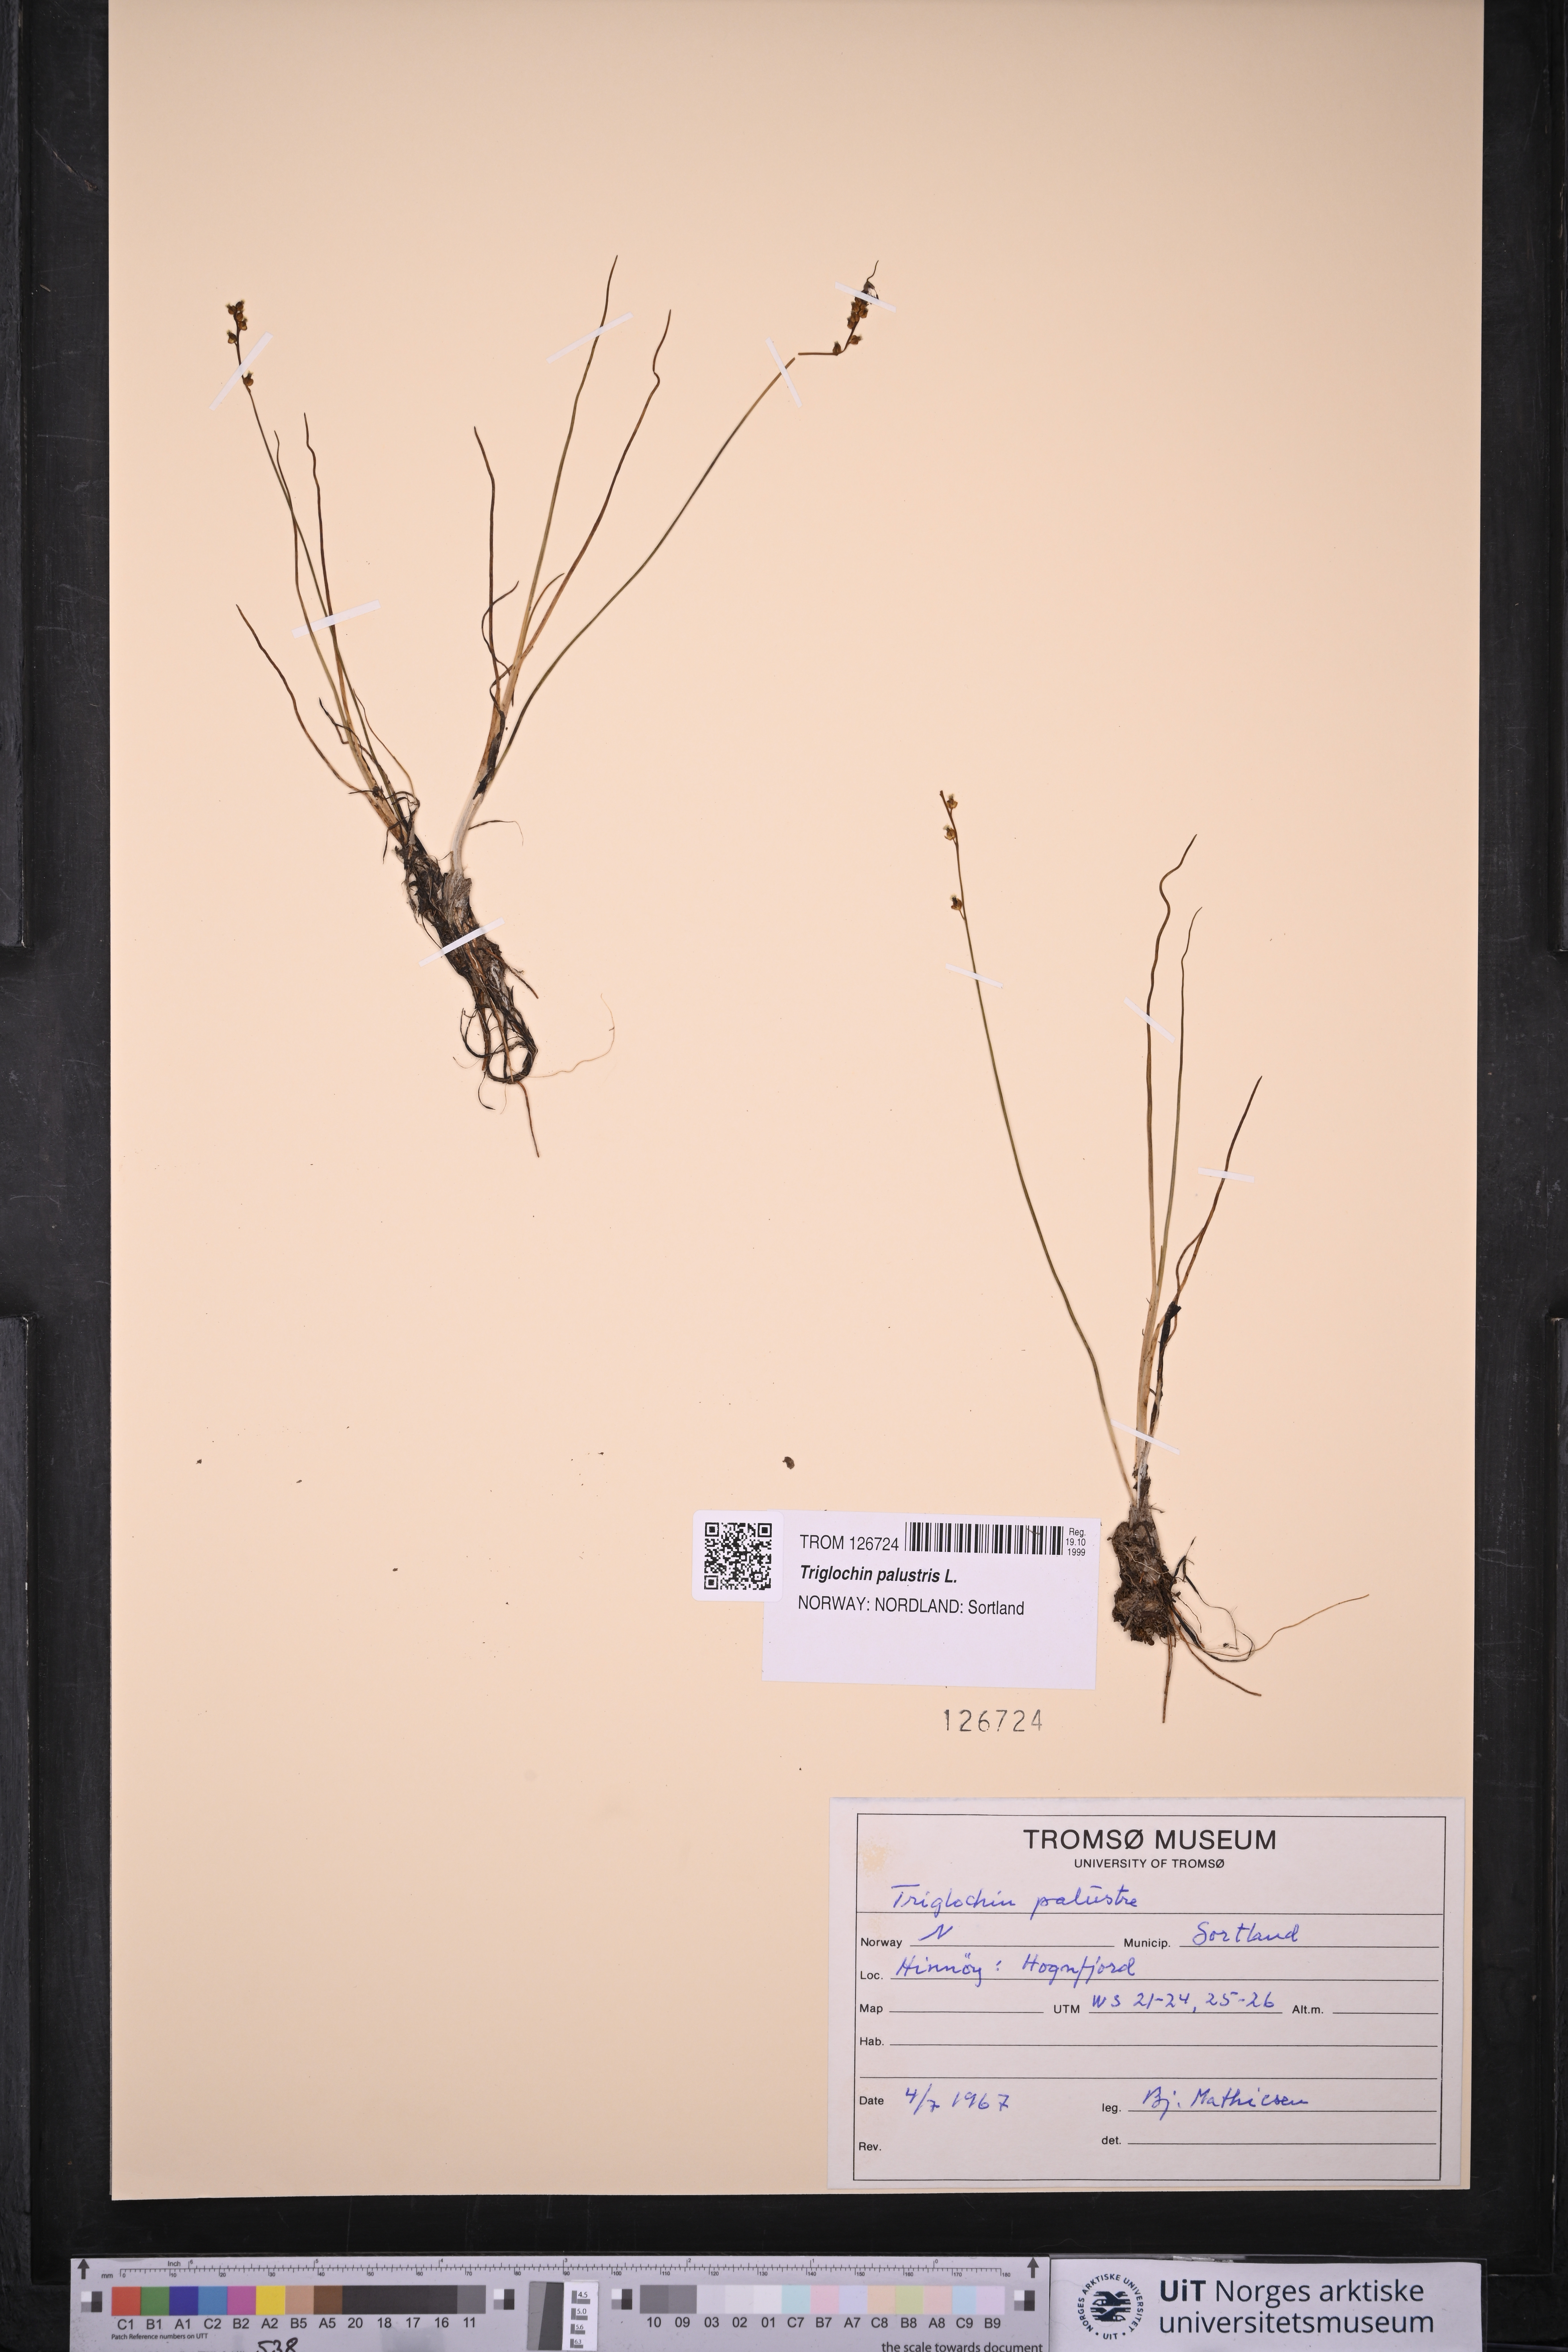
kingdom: Plantae
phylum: Tracheophyta
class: Liliopsida
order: Alismatales
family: Juncaginaceae
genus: Triglochin
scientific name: Triglochin palustris
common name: Marsh arrowgrass
